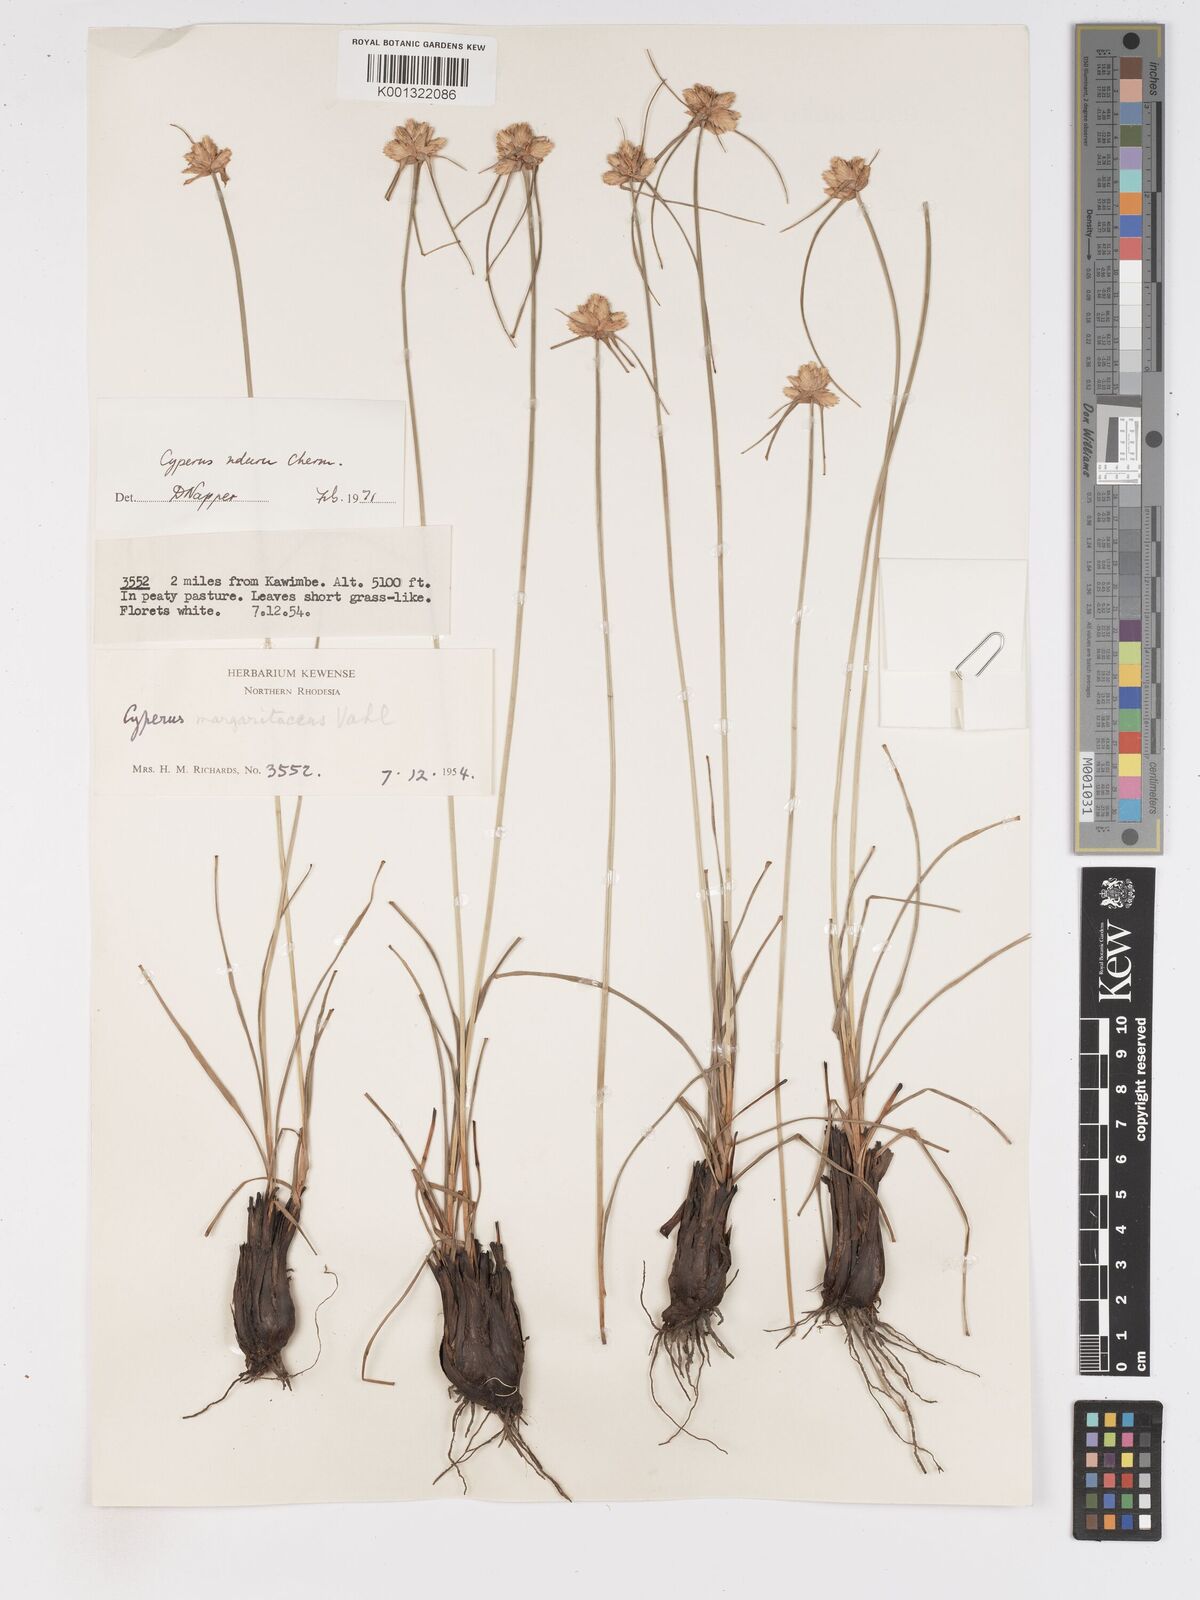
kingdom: Plantae
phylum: Tracheophyta
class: Liliopsida
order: Poales
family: Cyperaceae
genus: Cyperus
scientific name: Cyperus nduru
